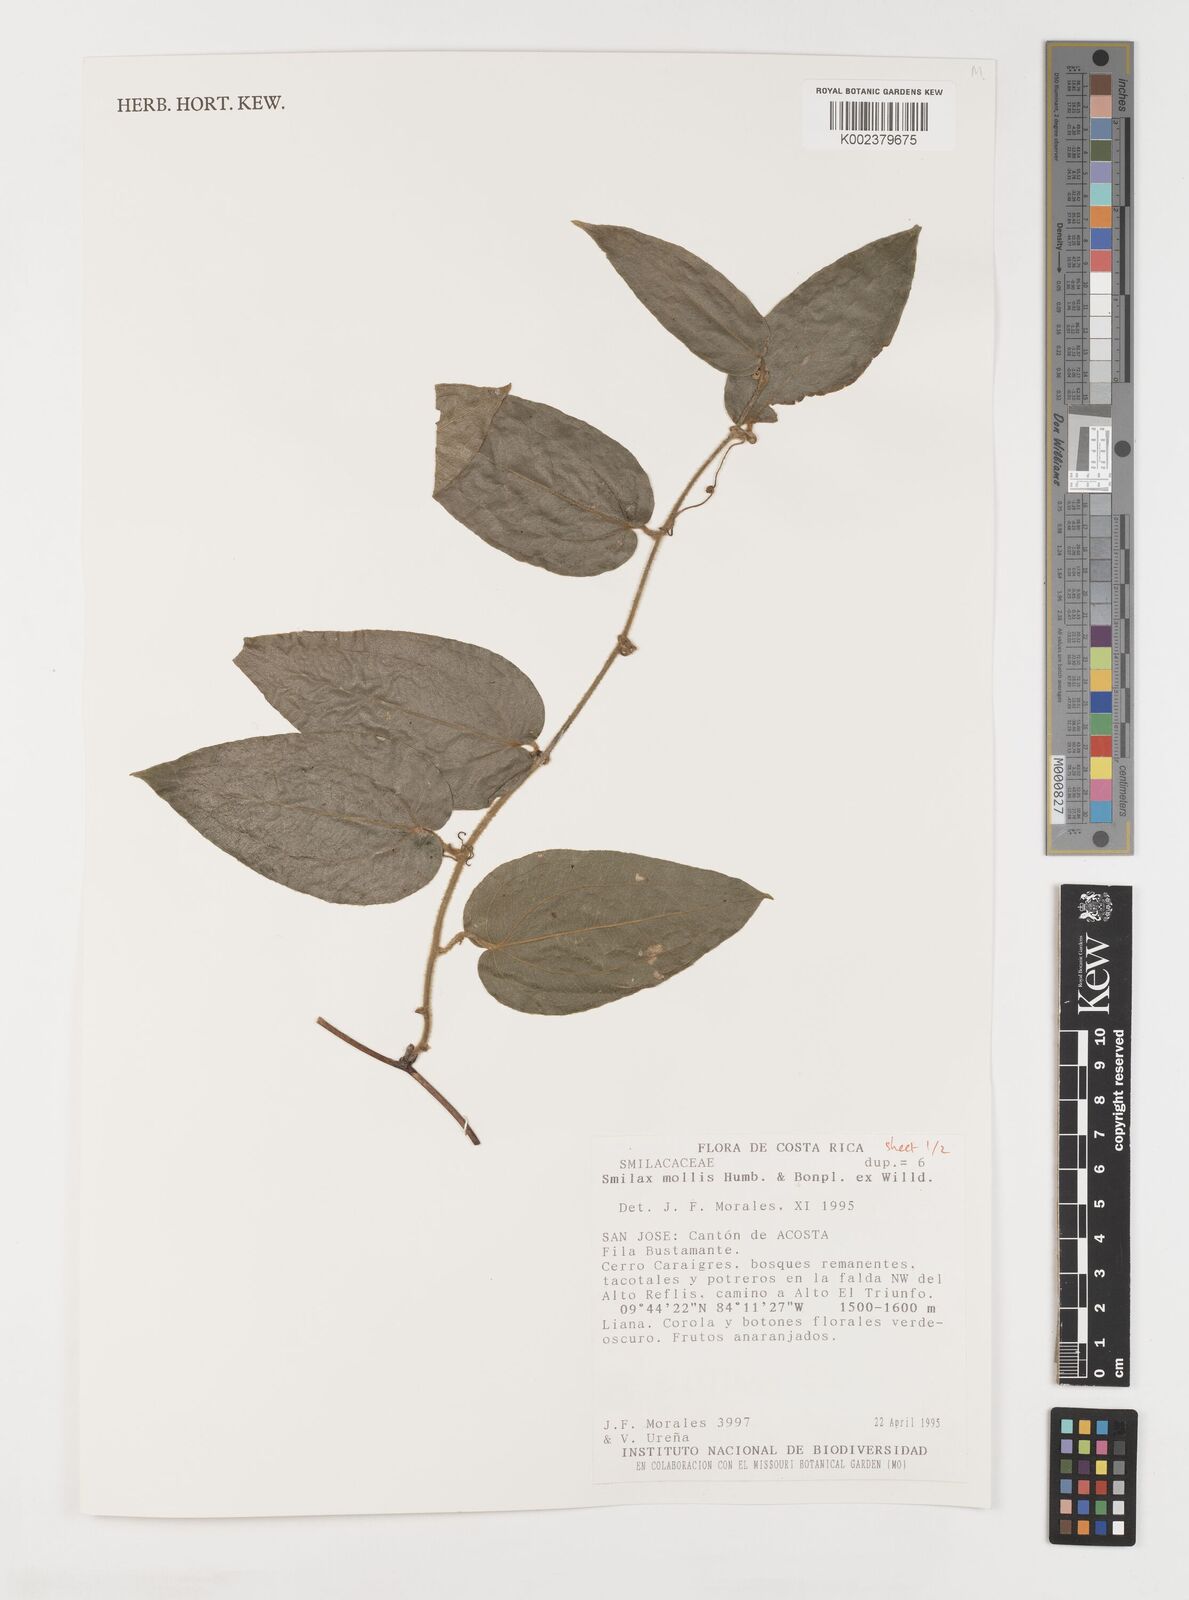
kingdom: Plantae
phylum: Tracheophyta
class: Liliopsida
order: Liliales
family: Smilacaceae
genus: Smilax
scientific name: Smilax mollis
